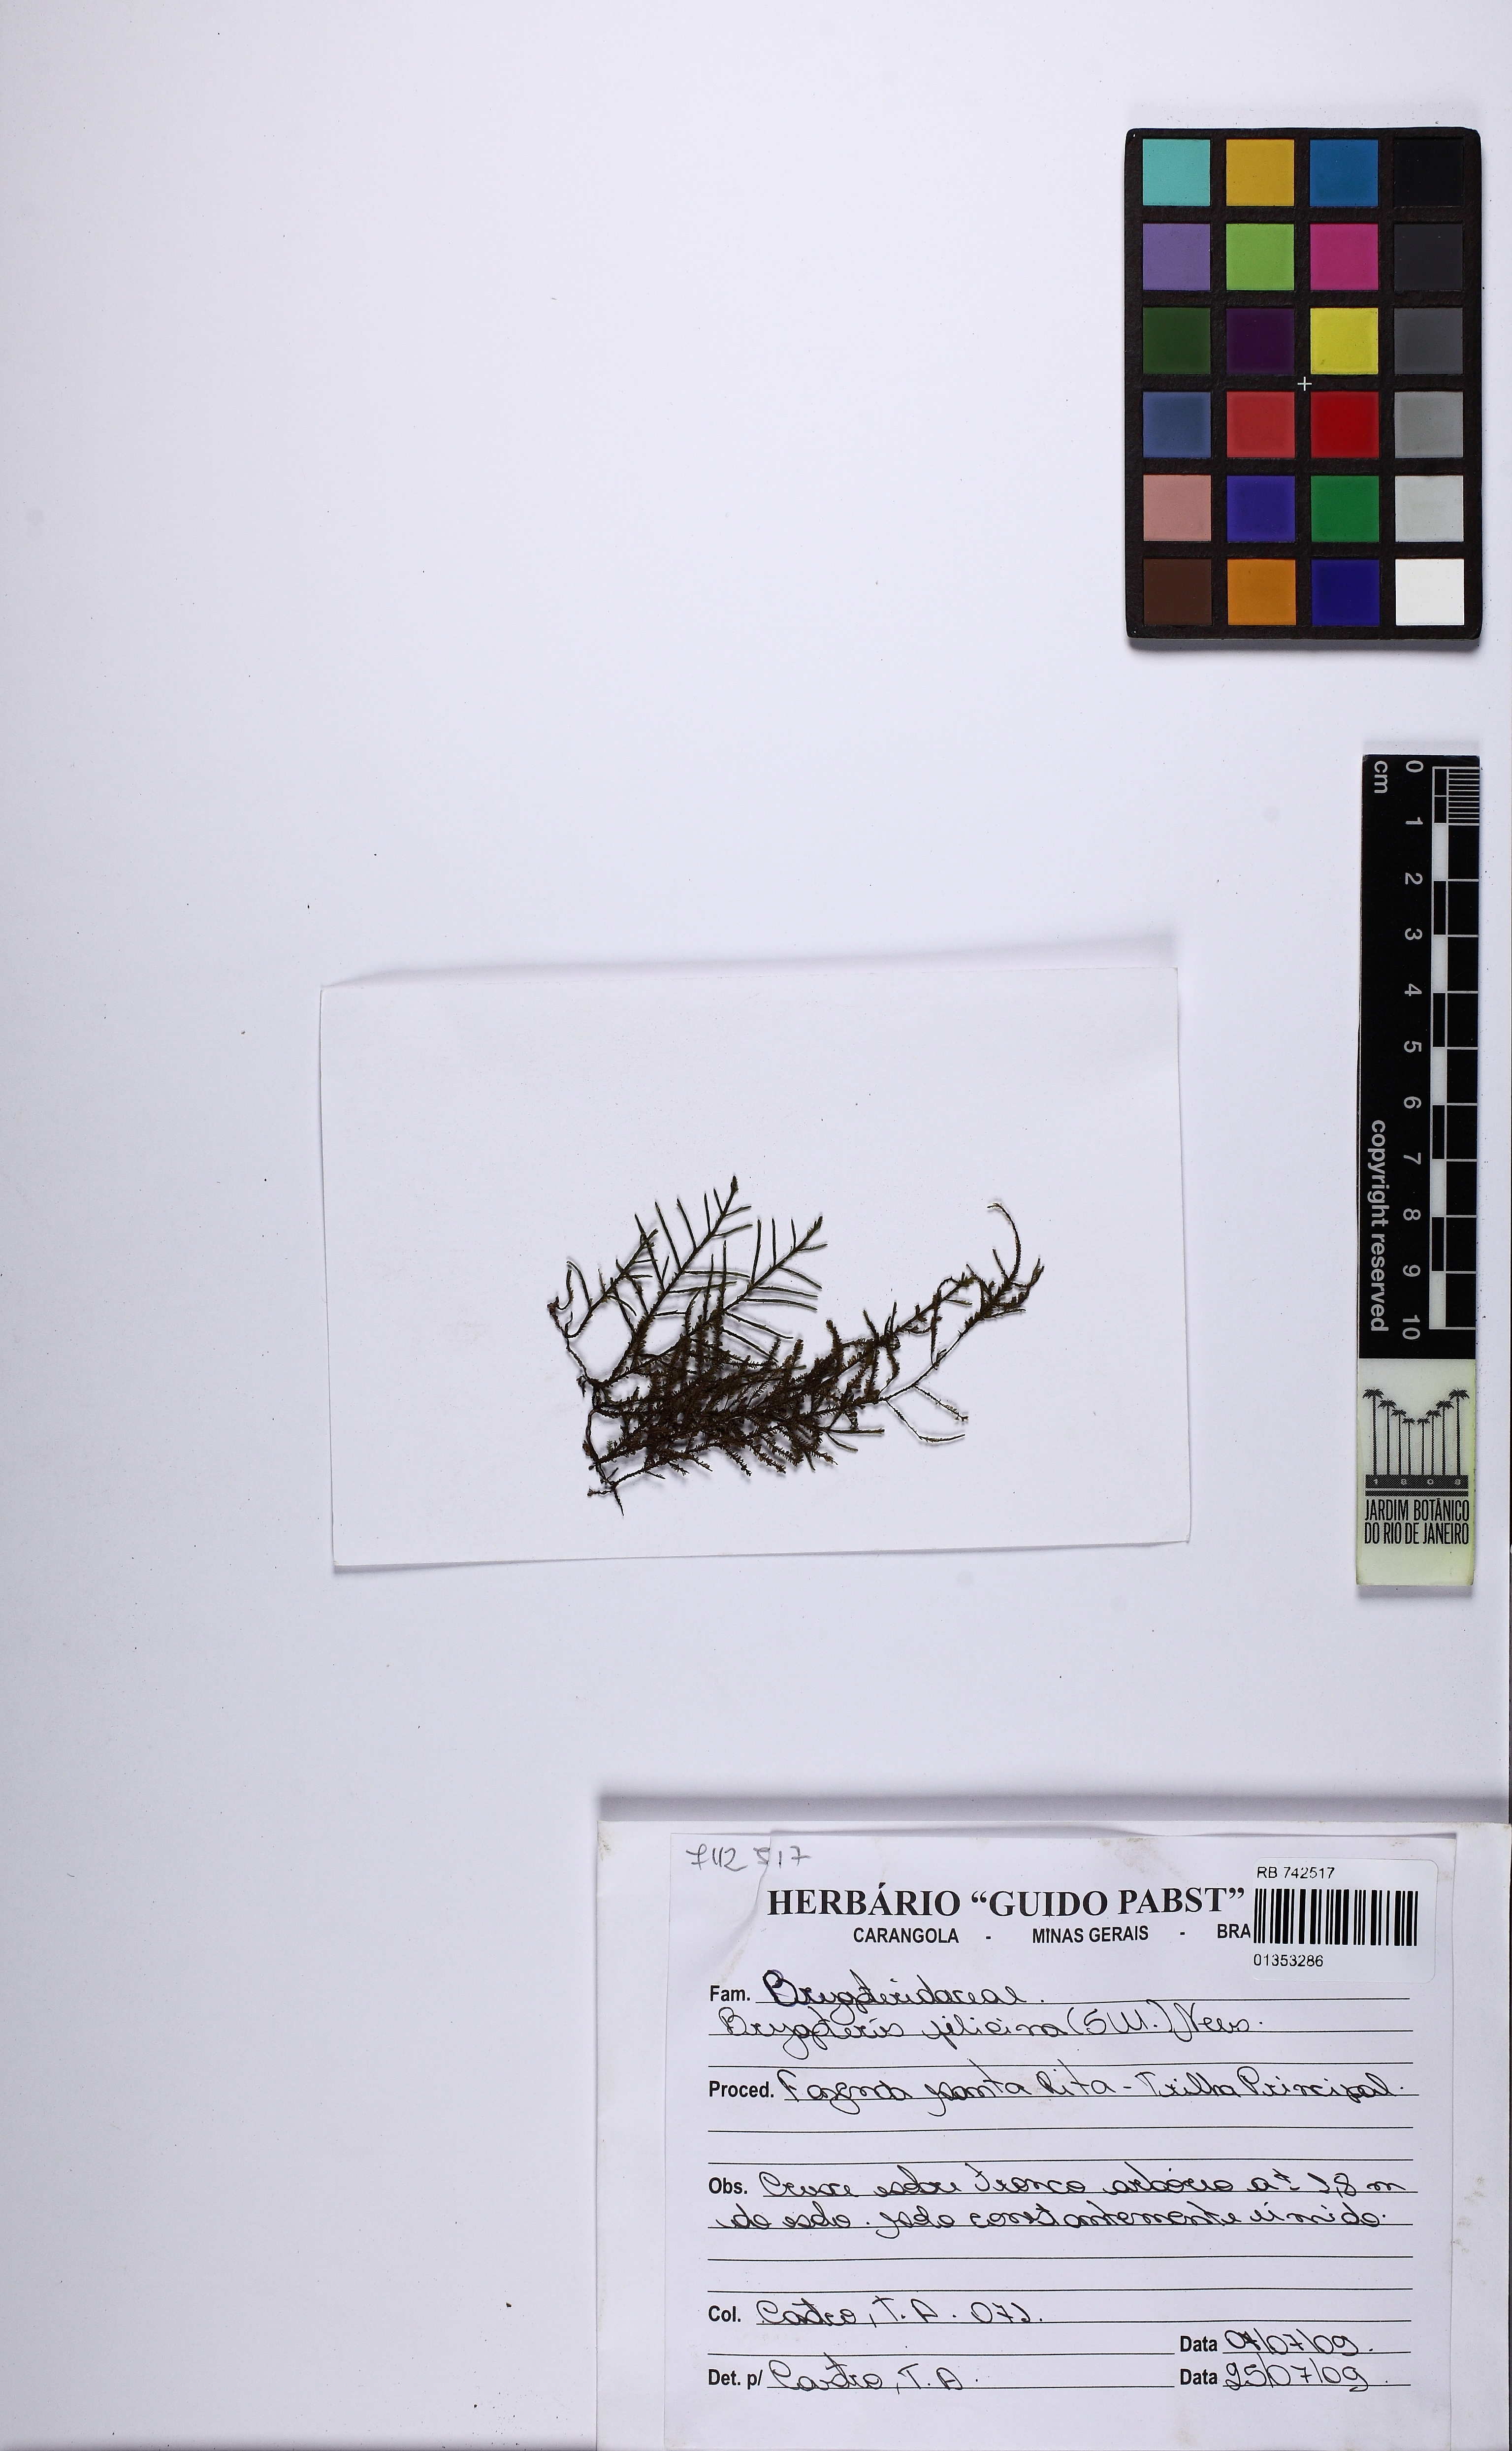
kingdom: Plantae
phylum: Marchantiophyta
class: Jungermanniopsida
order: Porellales
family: Lejeuneaceae
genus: Bryopteris
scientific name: Bryopteris filicina
